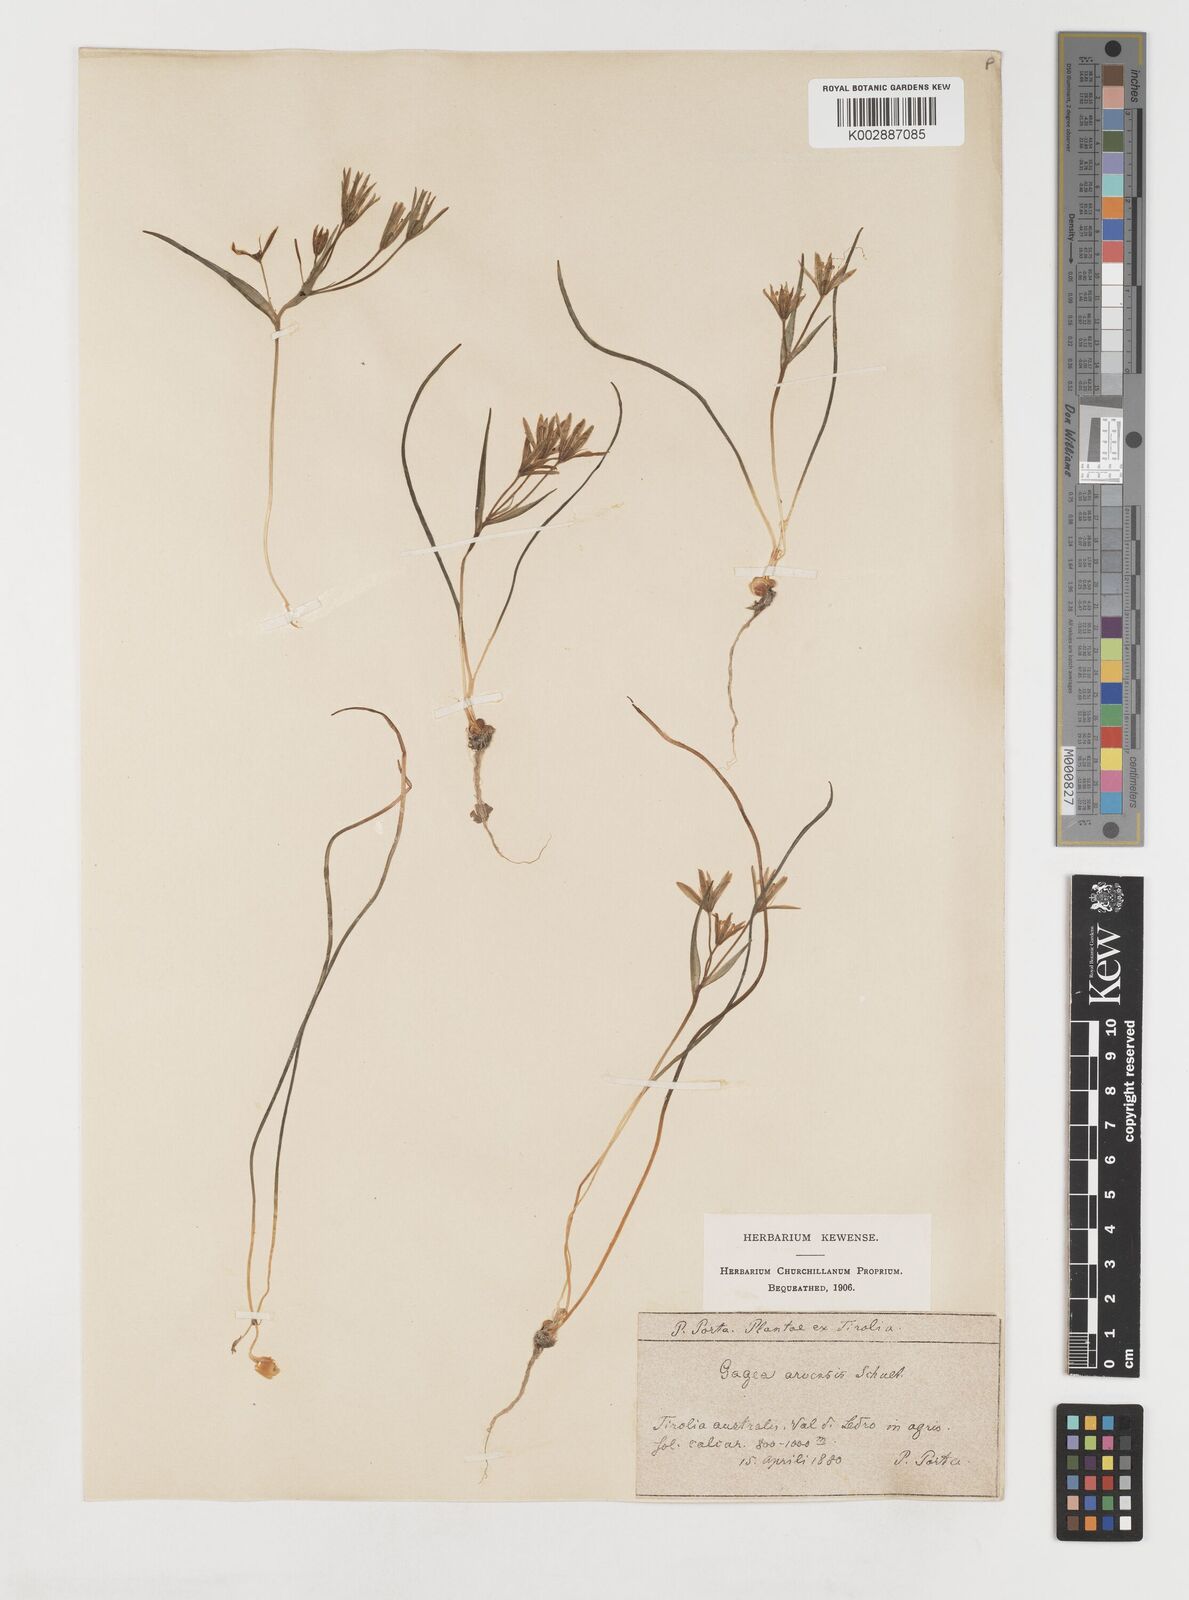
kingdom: Plantae
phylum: Tracheophyta
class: Liliopsida
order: Liliales
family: Liliaceae
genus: Gagea
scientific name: Gagea minima
